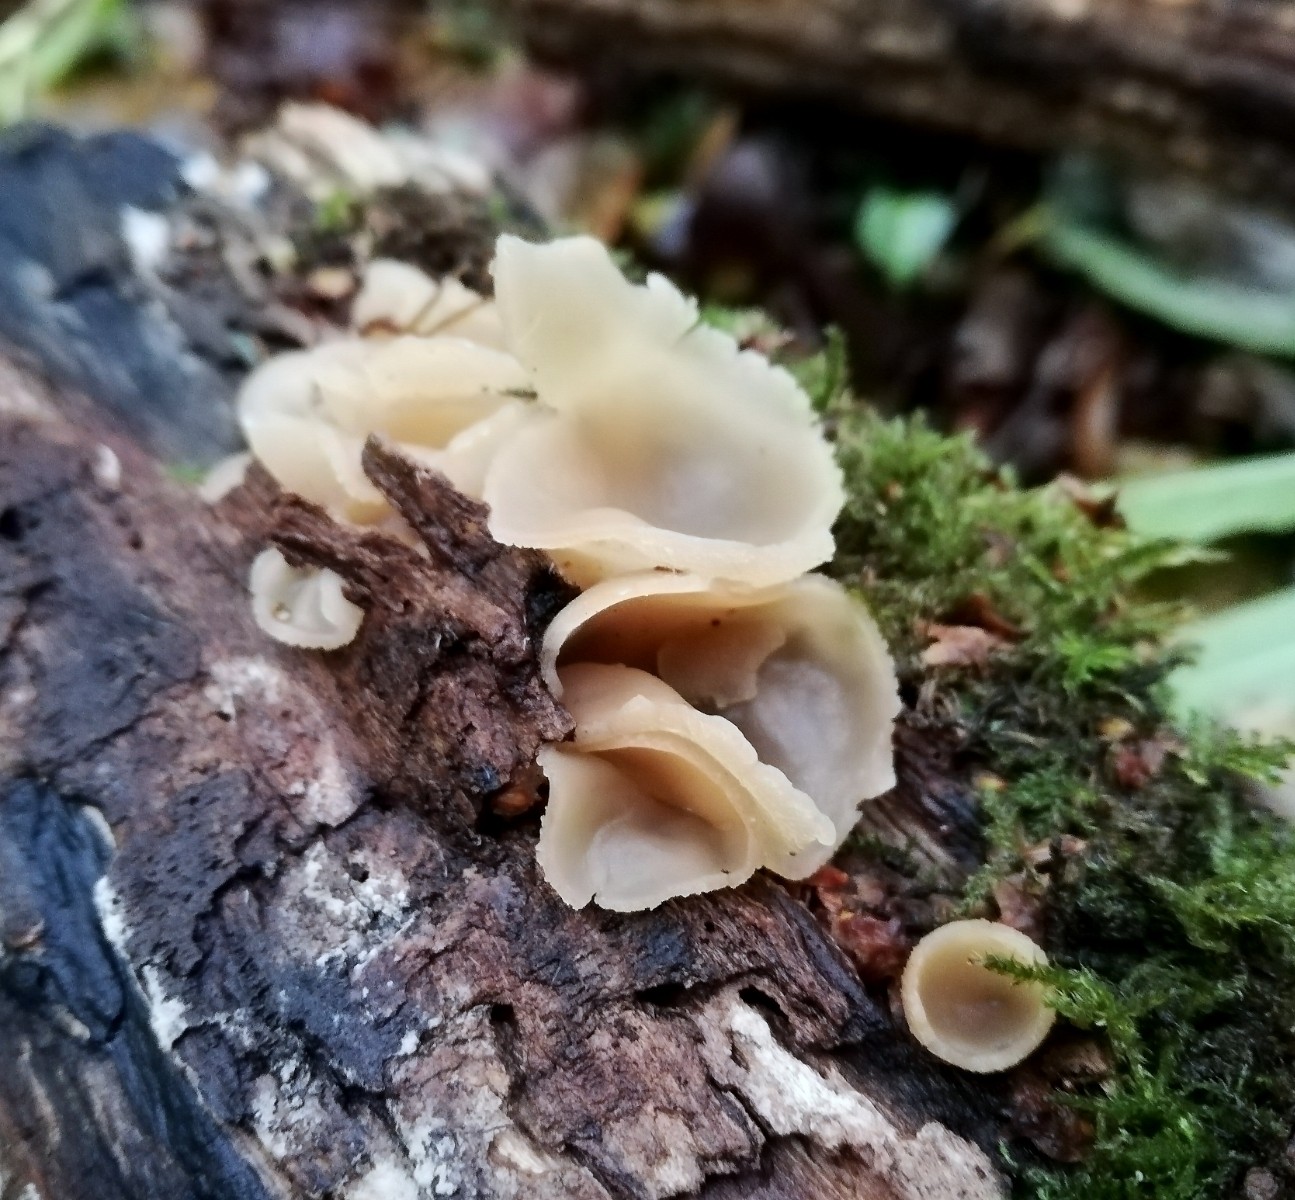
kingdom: Fungi
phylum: Ascomycota
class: Pezizomycetes
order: Pezizales
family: Pezizaceae
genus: Peziza
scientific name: Peziza varia
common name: Ved-bægersvamp
